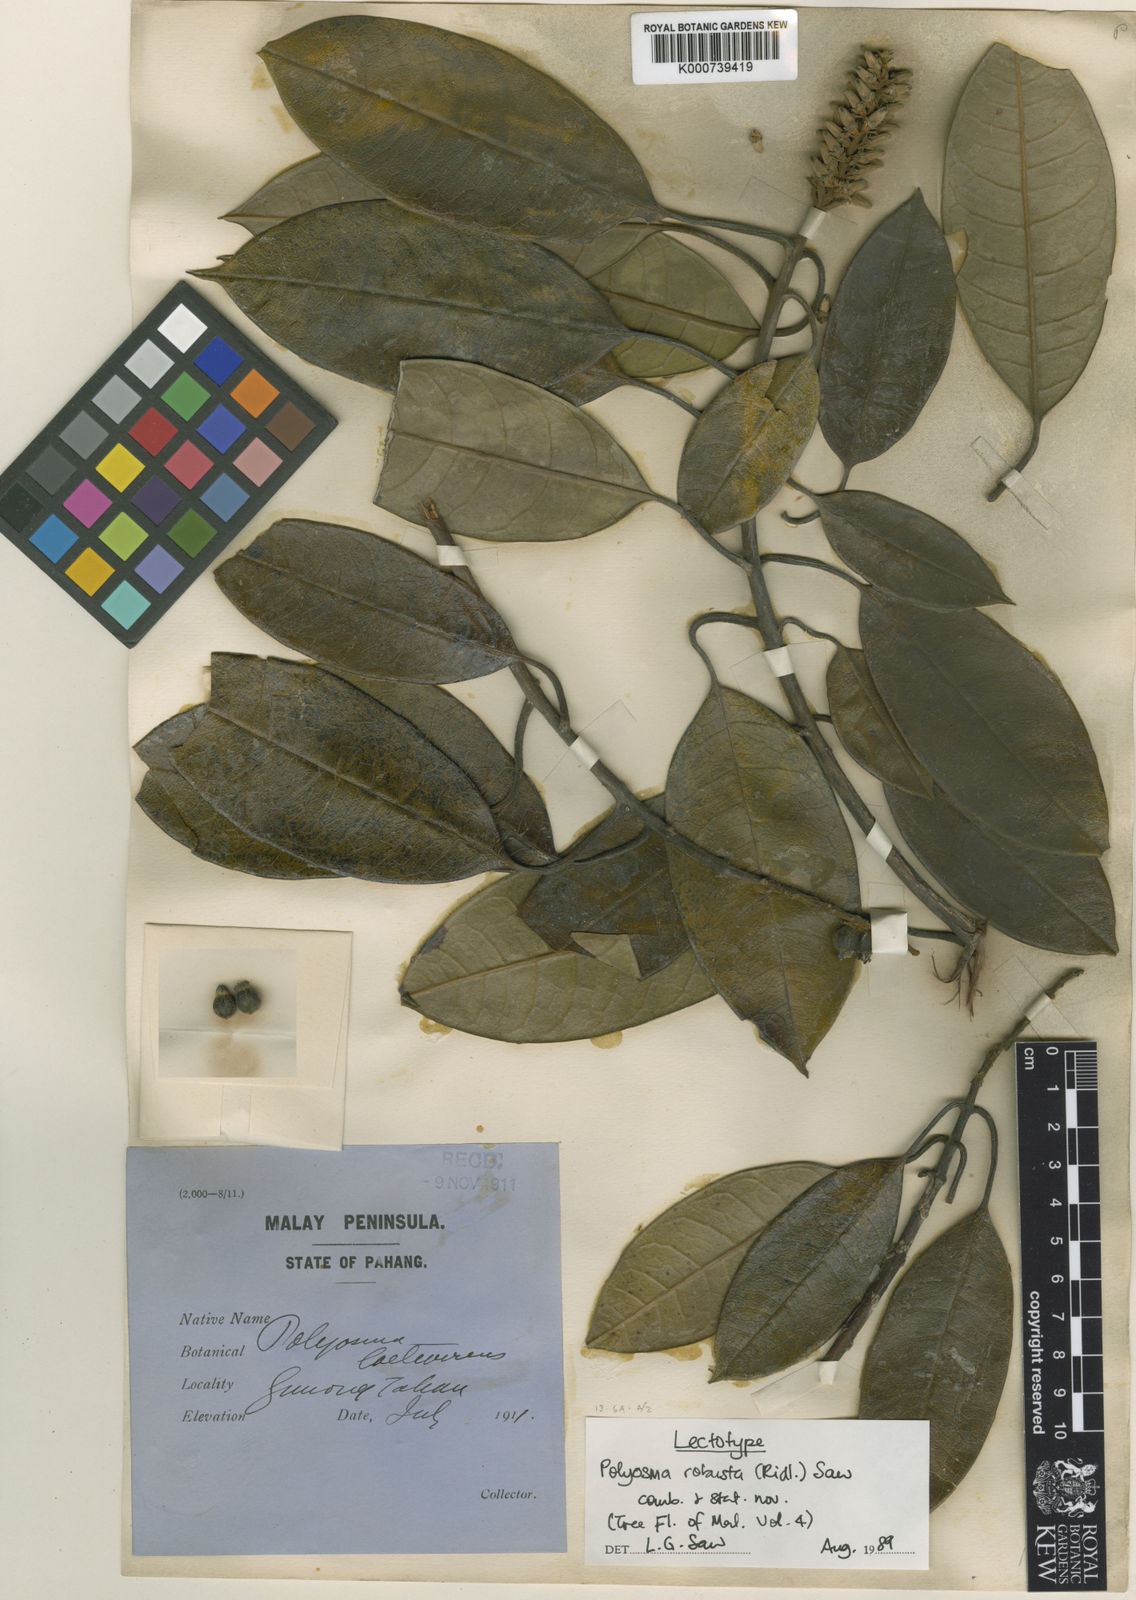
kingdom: Plantae
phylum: Tracheophyta
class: Magnoliopsida
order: Escalloniales
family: Escalloniaceae
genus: Polyosma
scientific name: Polyosma ridleyi
